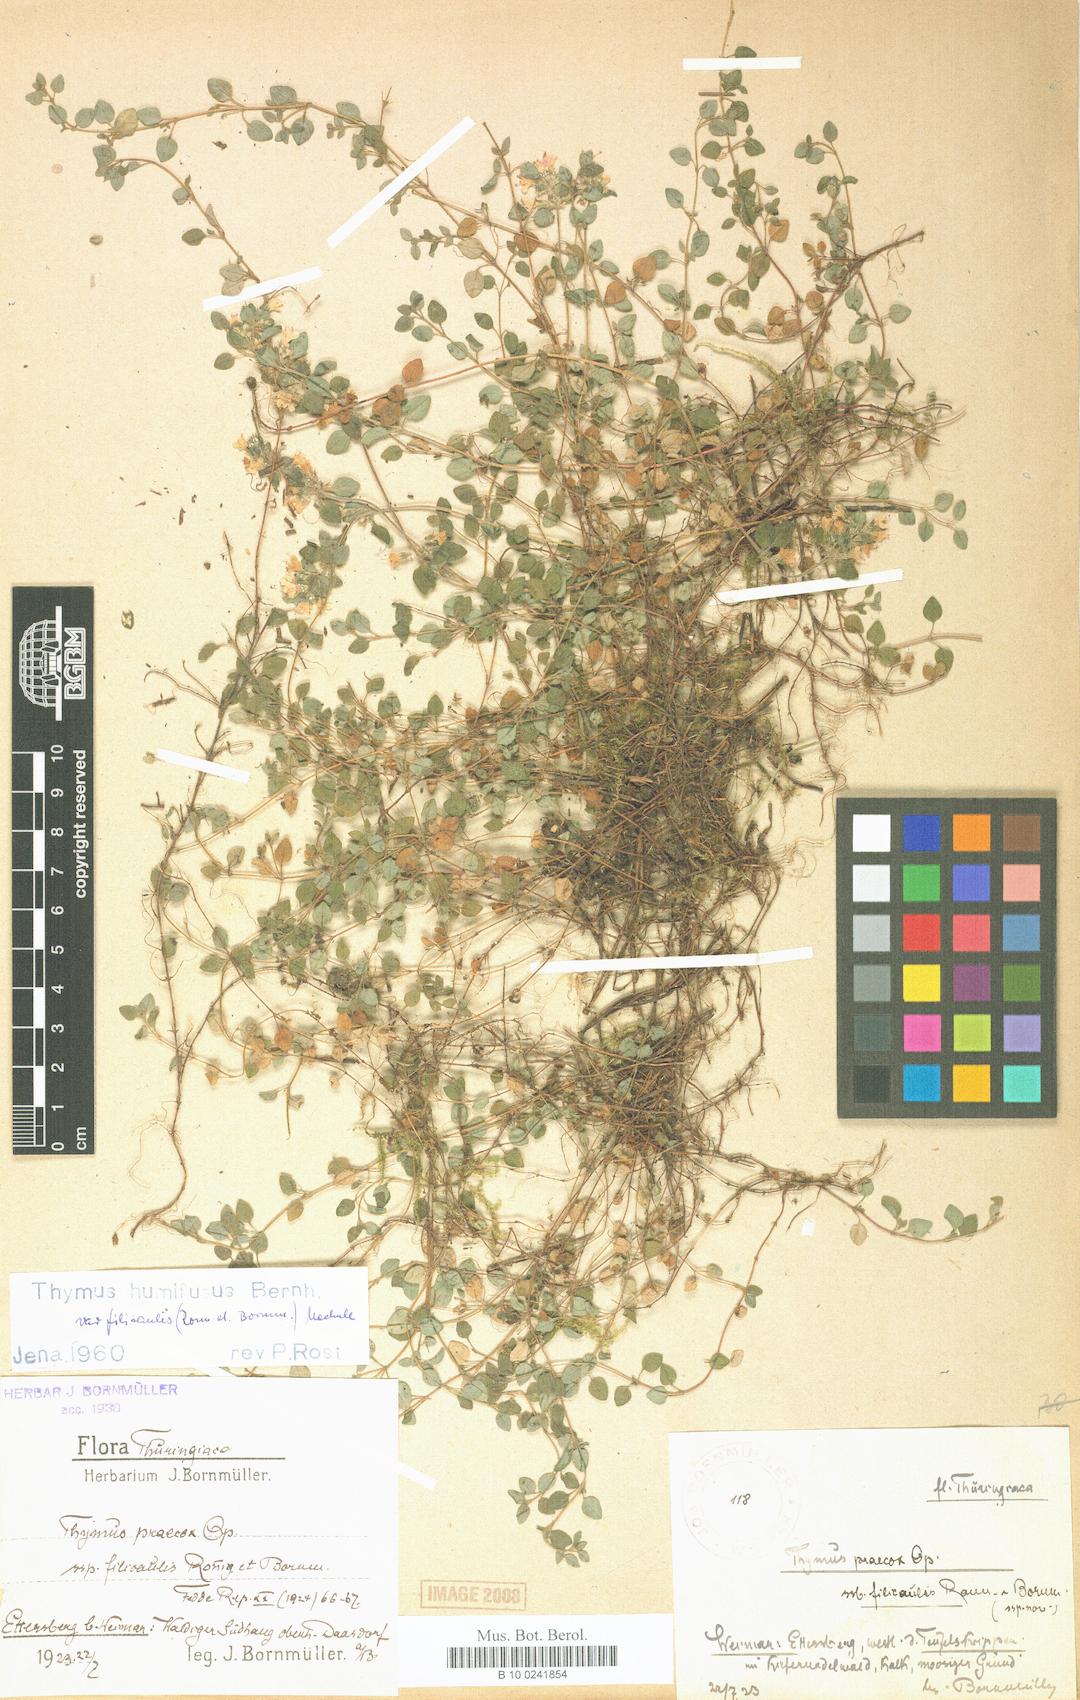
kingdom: Plantae
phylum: Tracheophyta
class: Magnoliopsida
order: Lamiales
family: Lamiaceae
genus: Thymus
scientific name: Thymus praecox
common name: Wild thyme
